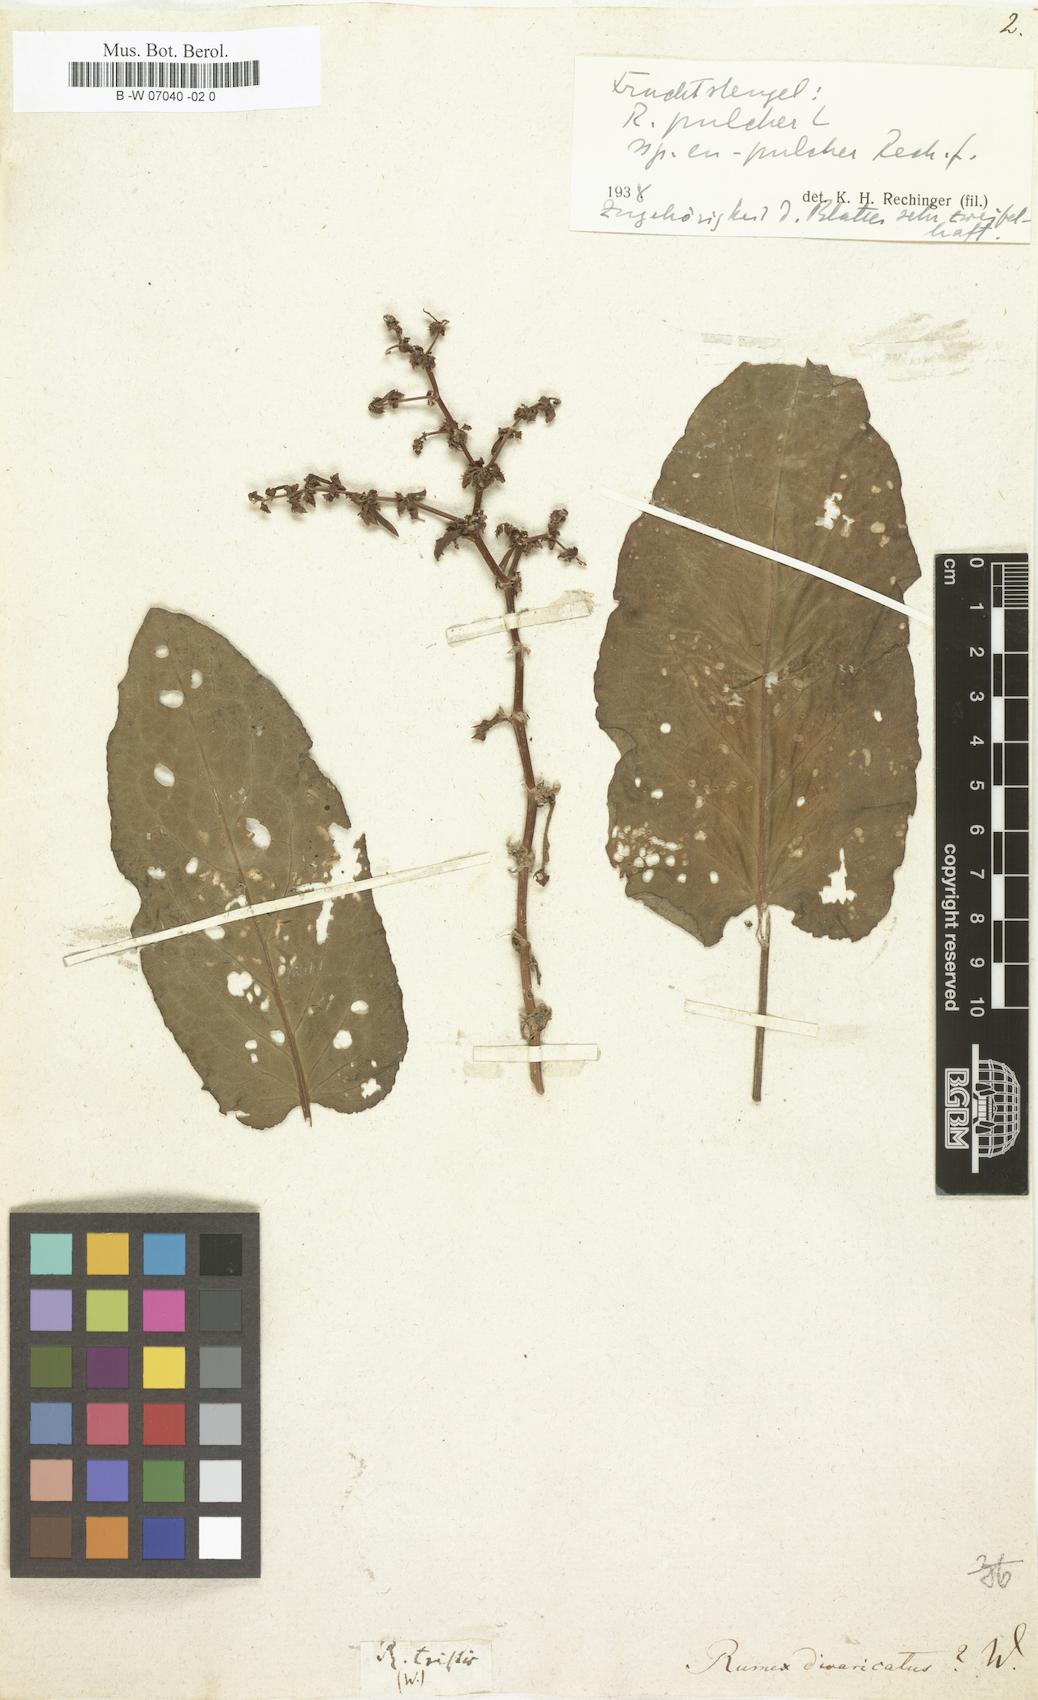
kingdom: Plantae
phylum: Tracheophyta
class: Magnoliopsida
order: Caryophyllales
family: Polygonaceae
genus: Rumex
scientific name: Rumex pulcher
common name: Fiddle dock
